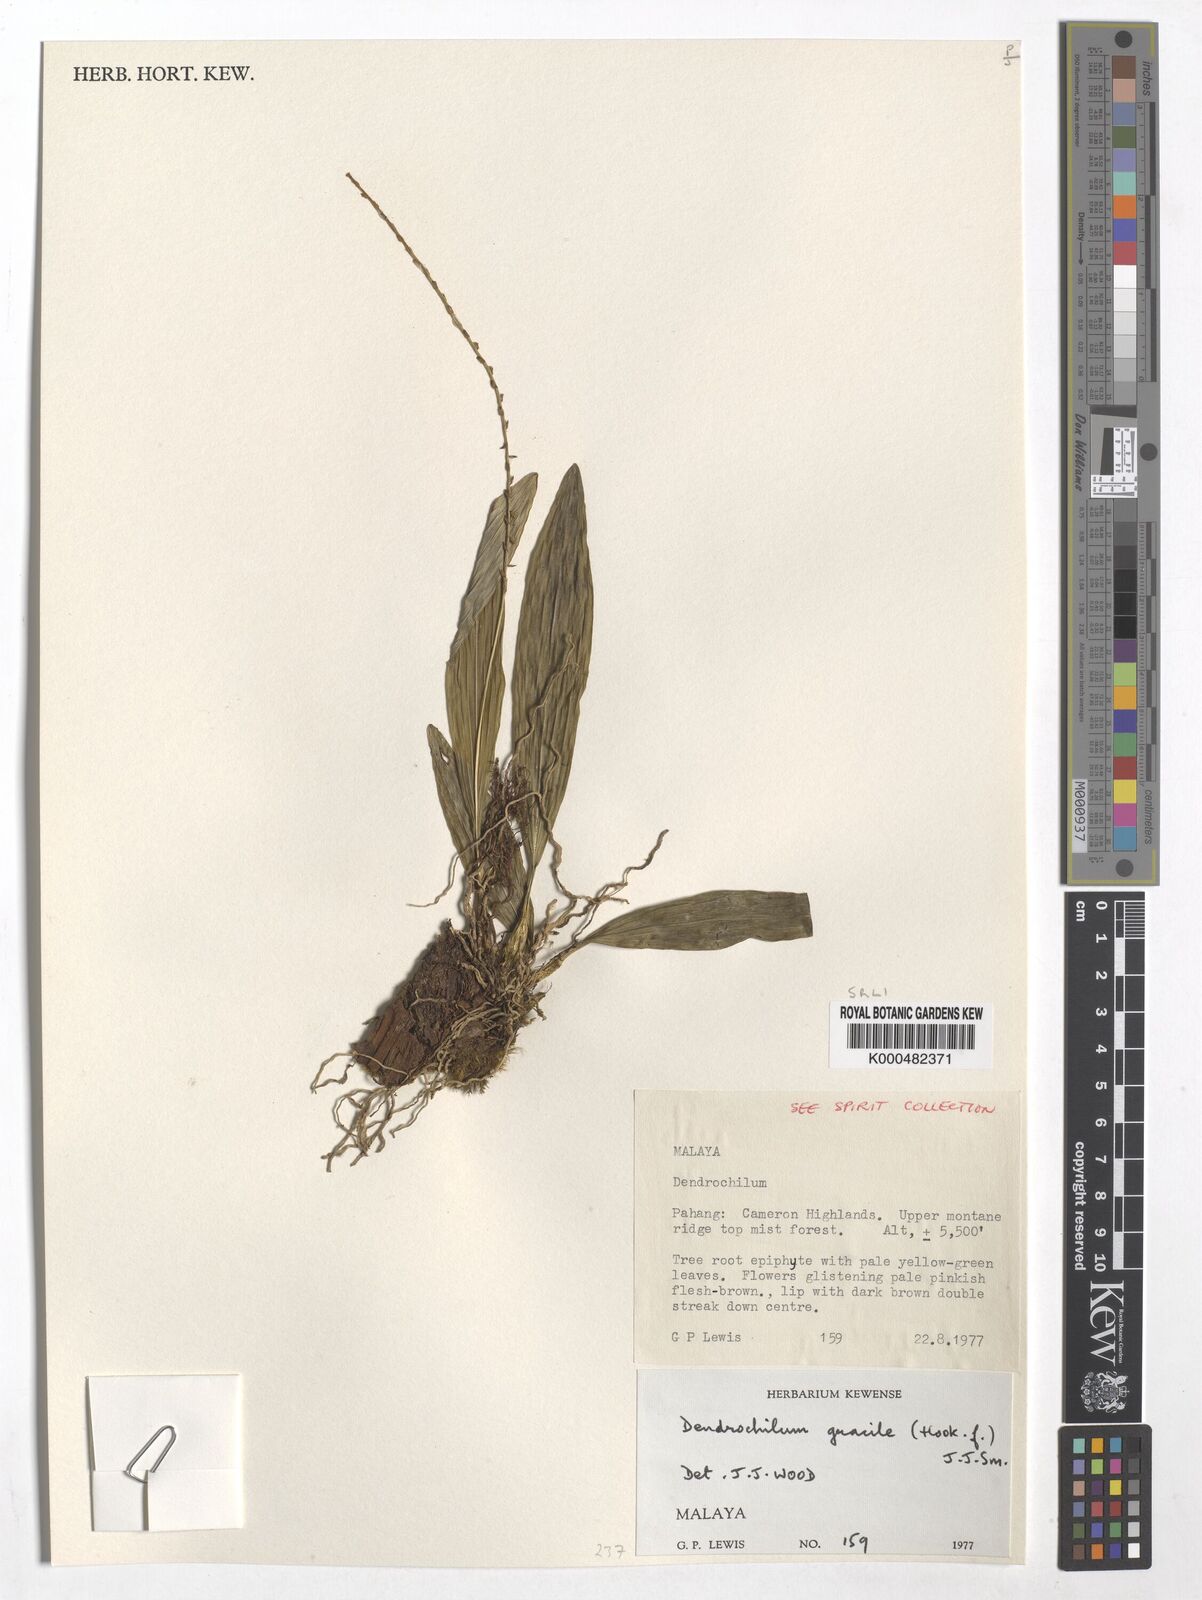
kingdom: Plantae
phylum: Tracheophyta
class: Liliopsida
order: Asparagales
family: Orchidaceae
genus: Coelogyne
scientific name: Coelogyne gracilis
